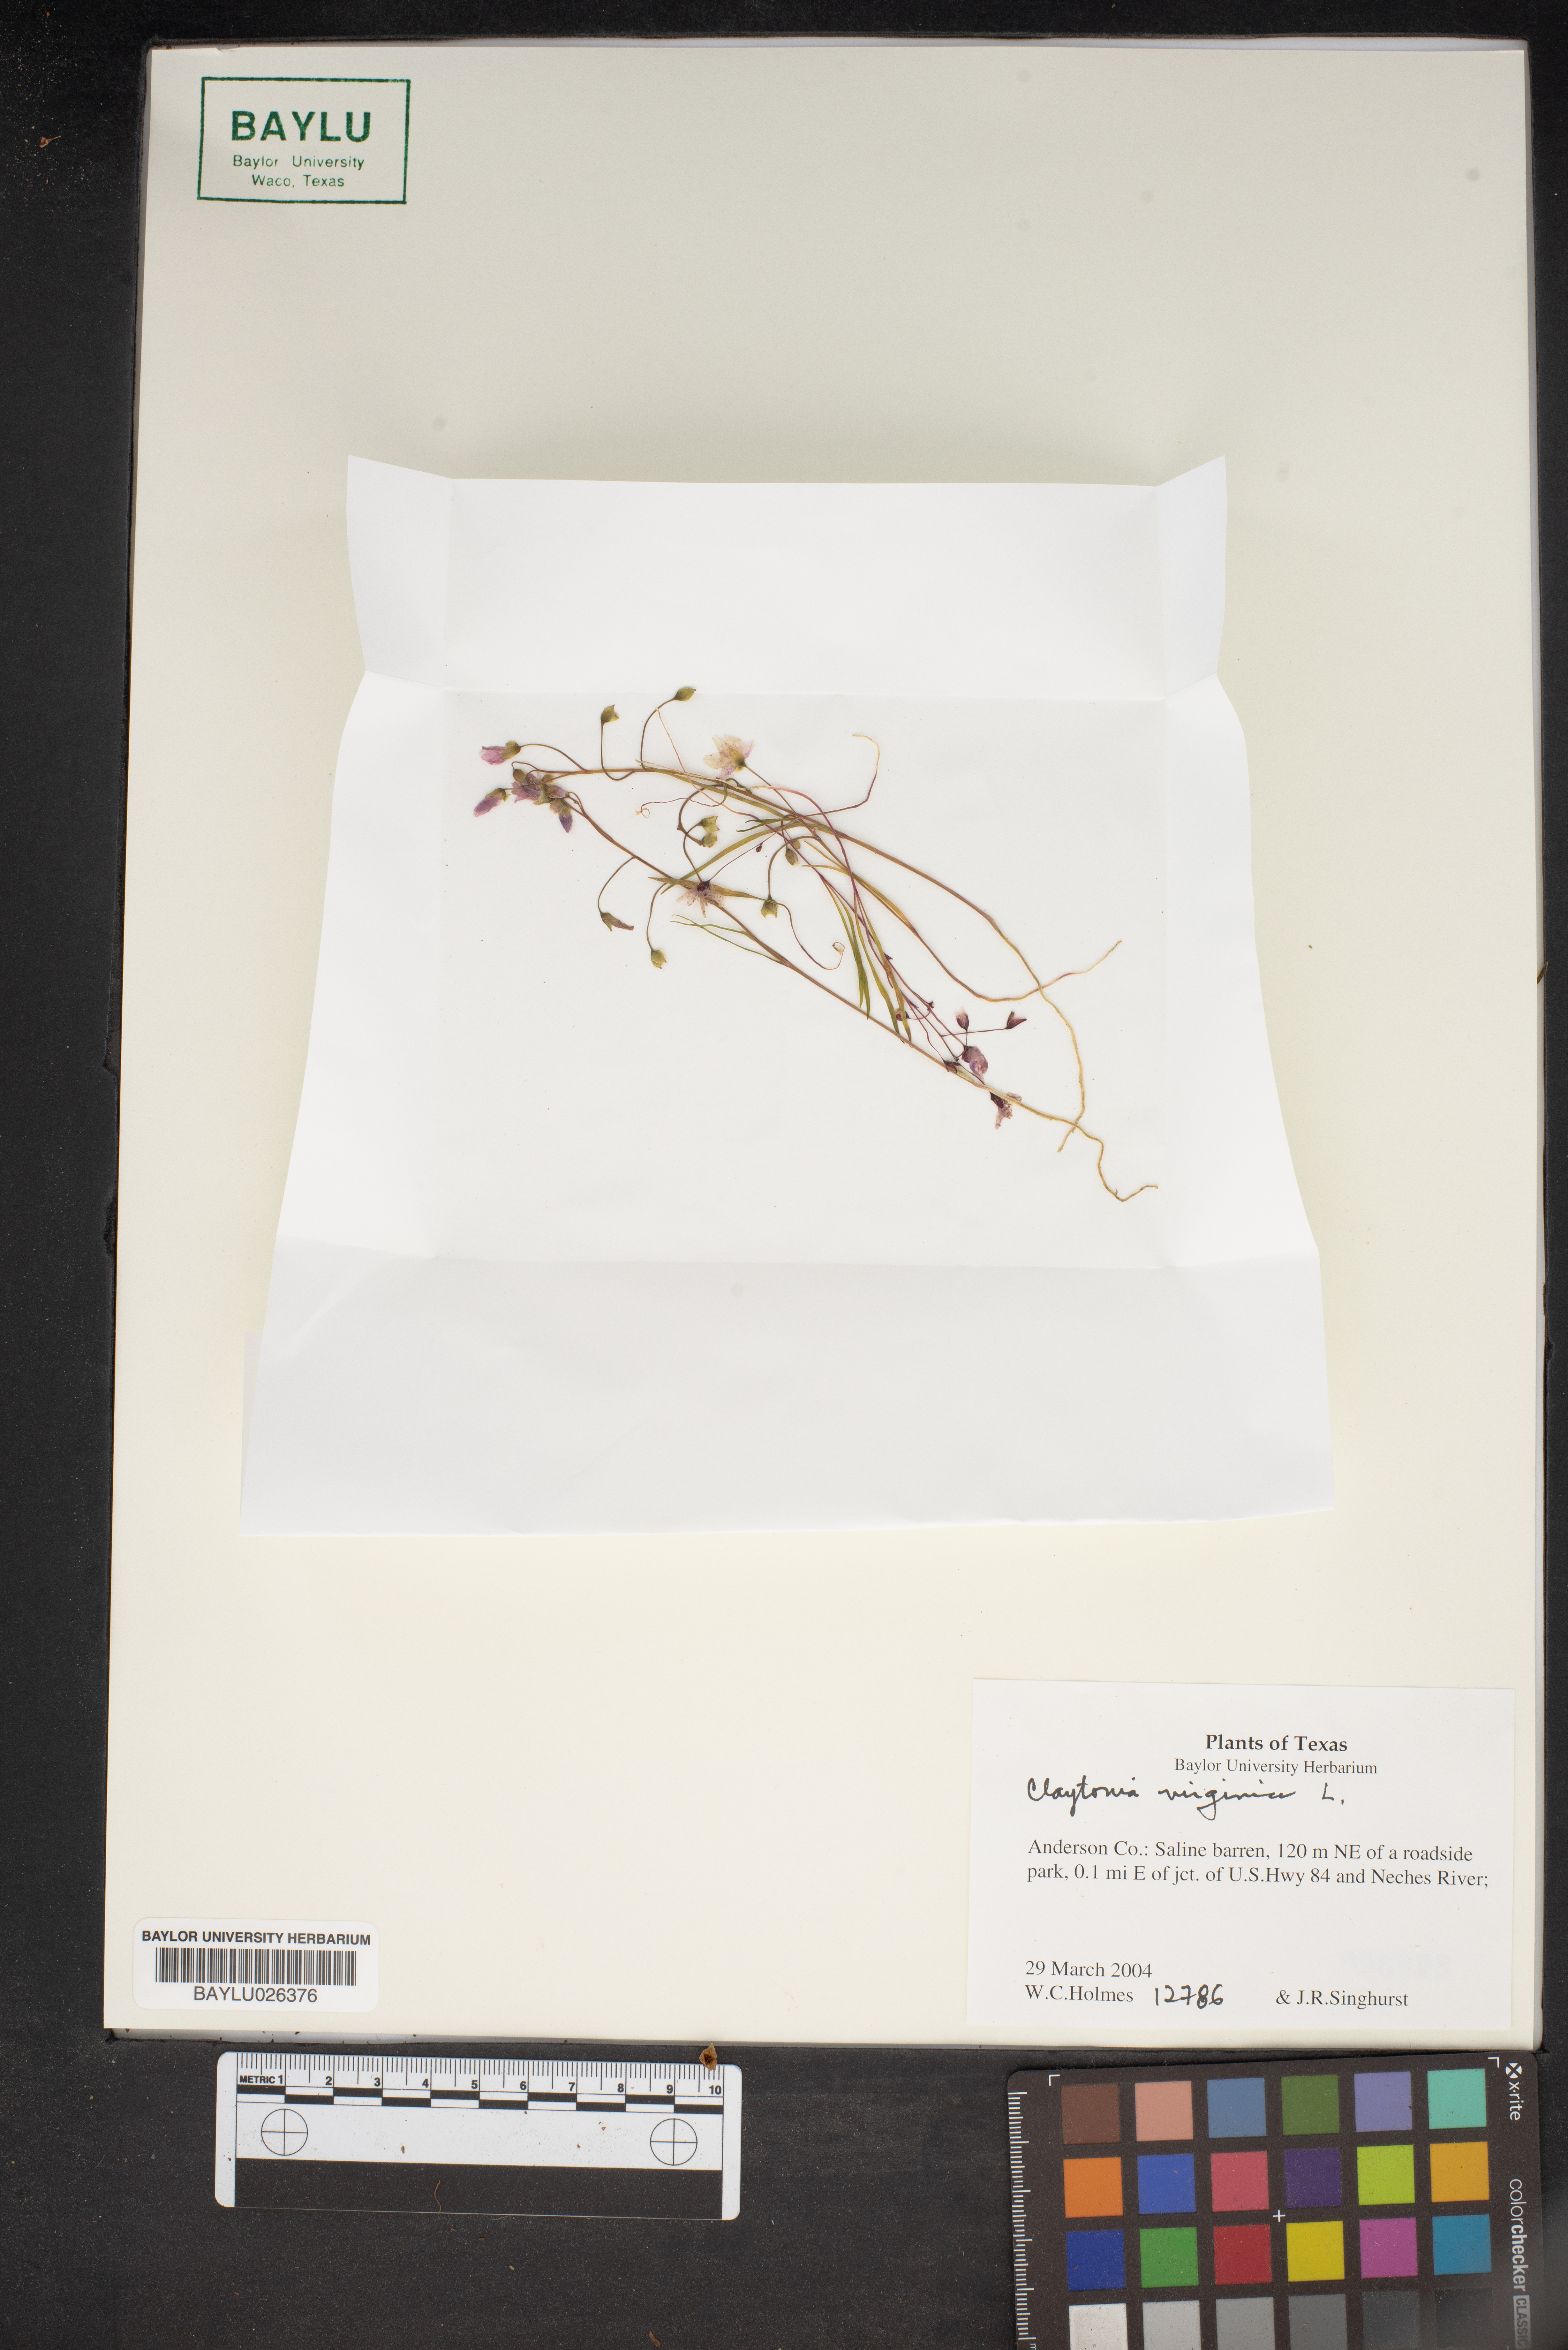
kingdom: Plantae
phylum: Tracheophyta
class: Magnoliopsida
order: Caryophyllales
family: Montiaceae
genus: Claytonia
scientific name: Claytonia virginica
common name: Virginia springbeauty
